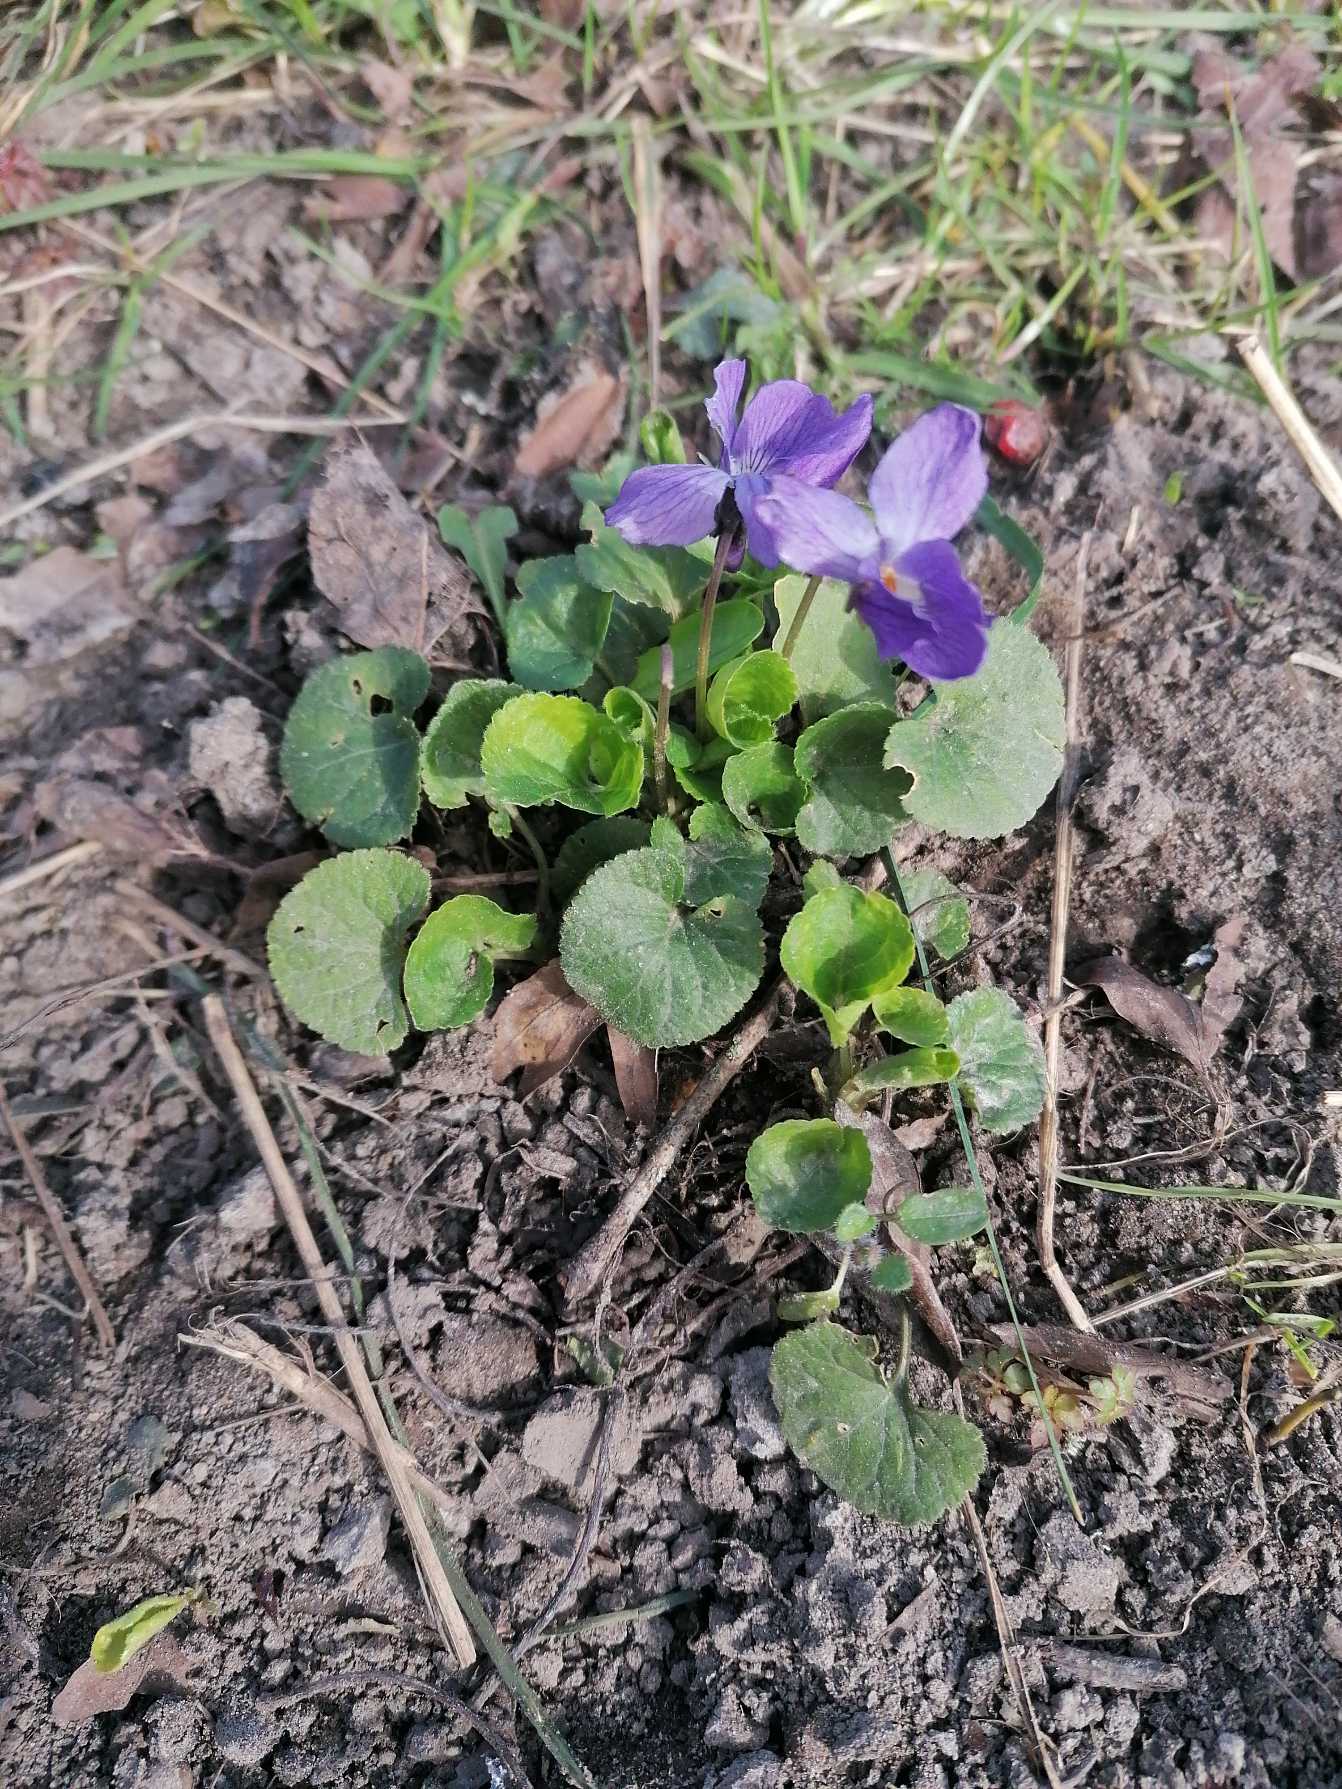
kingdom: Plantae
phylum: Tracheophyta
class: Magnoliopsida
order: Malpighiales
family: Violaceae
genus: Viola
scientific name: Viola odorata
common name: Marts-viol
